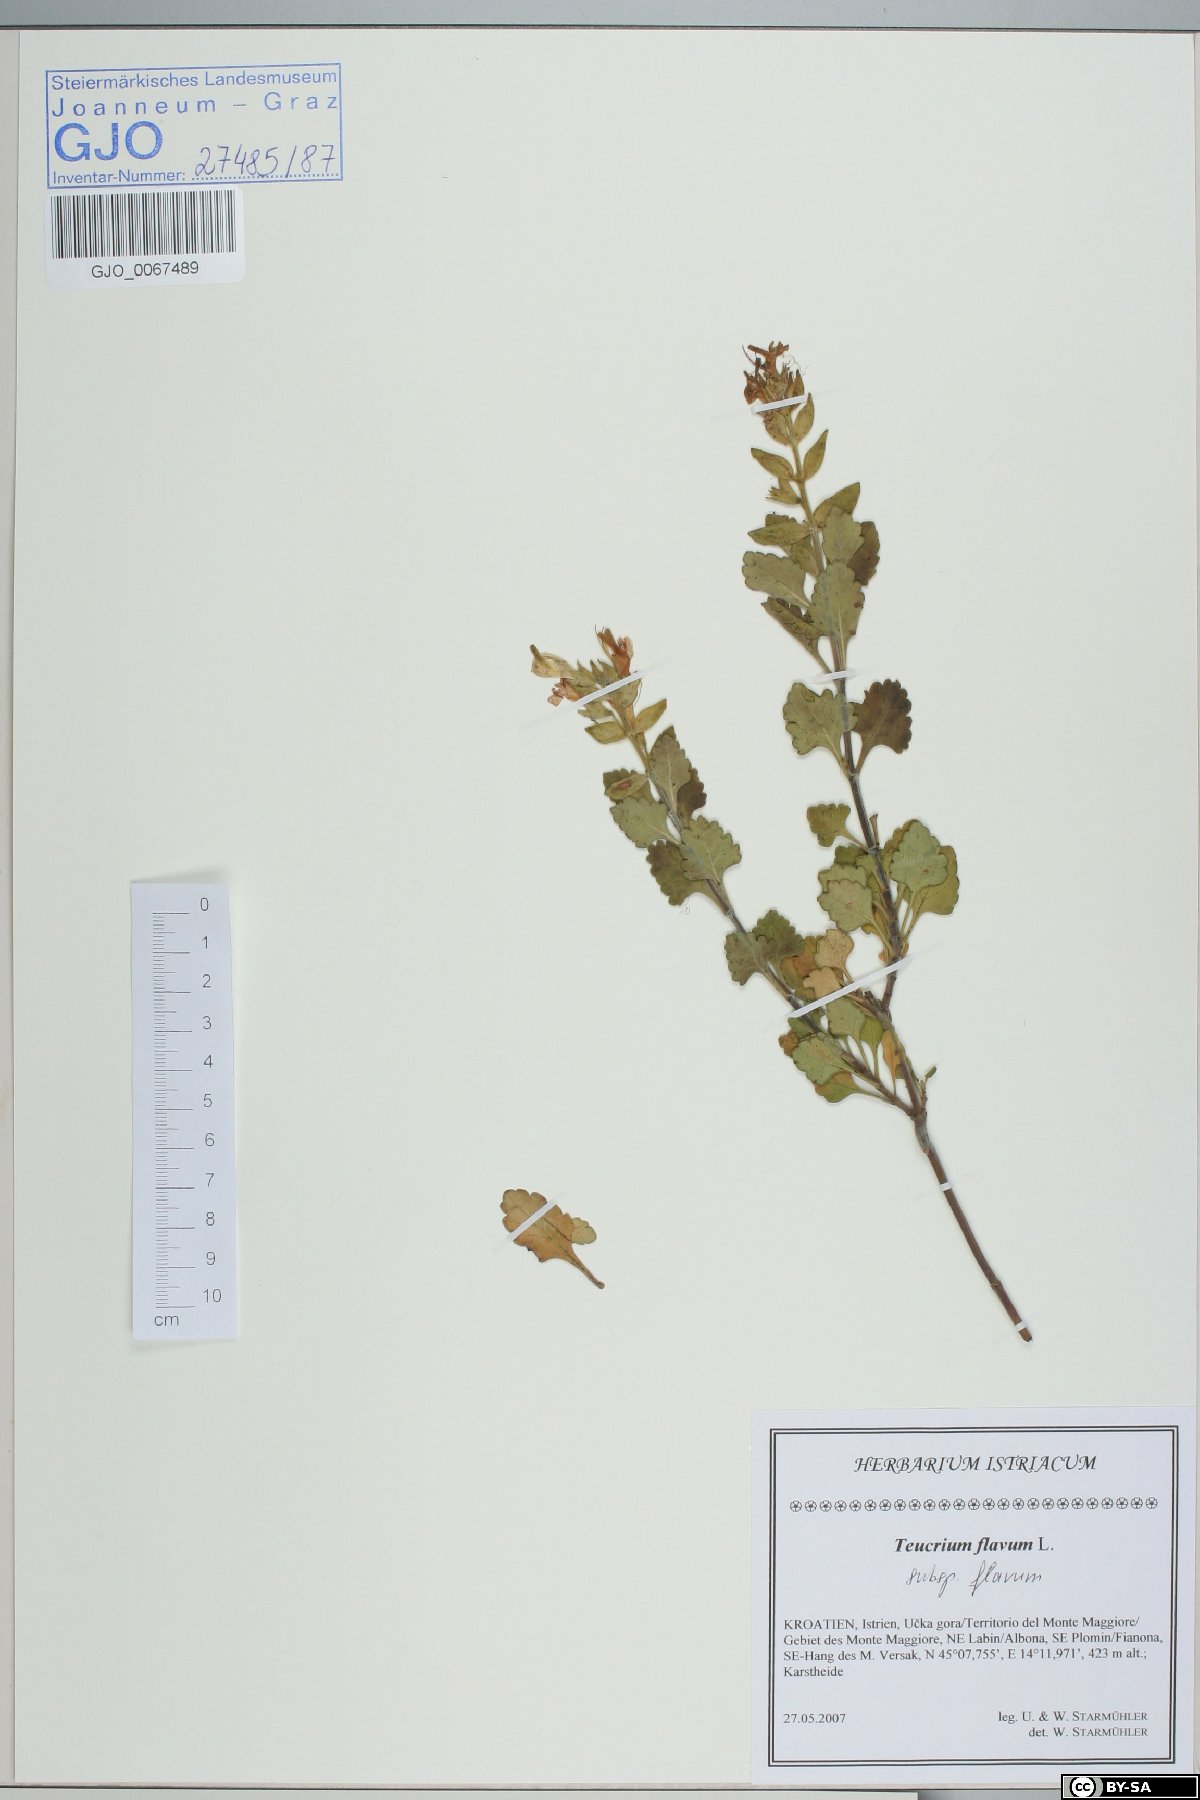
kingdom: Plantae
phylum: Tracheophyta
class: Magnoliopsida
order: Lamiales
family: Lamiaceae
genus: Teucrium
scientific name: Teucrium flavum
